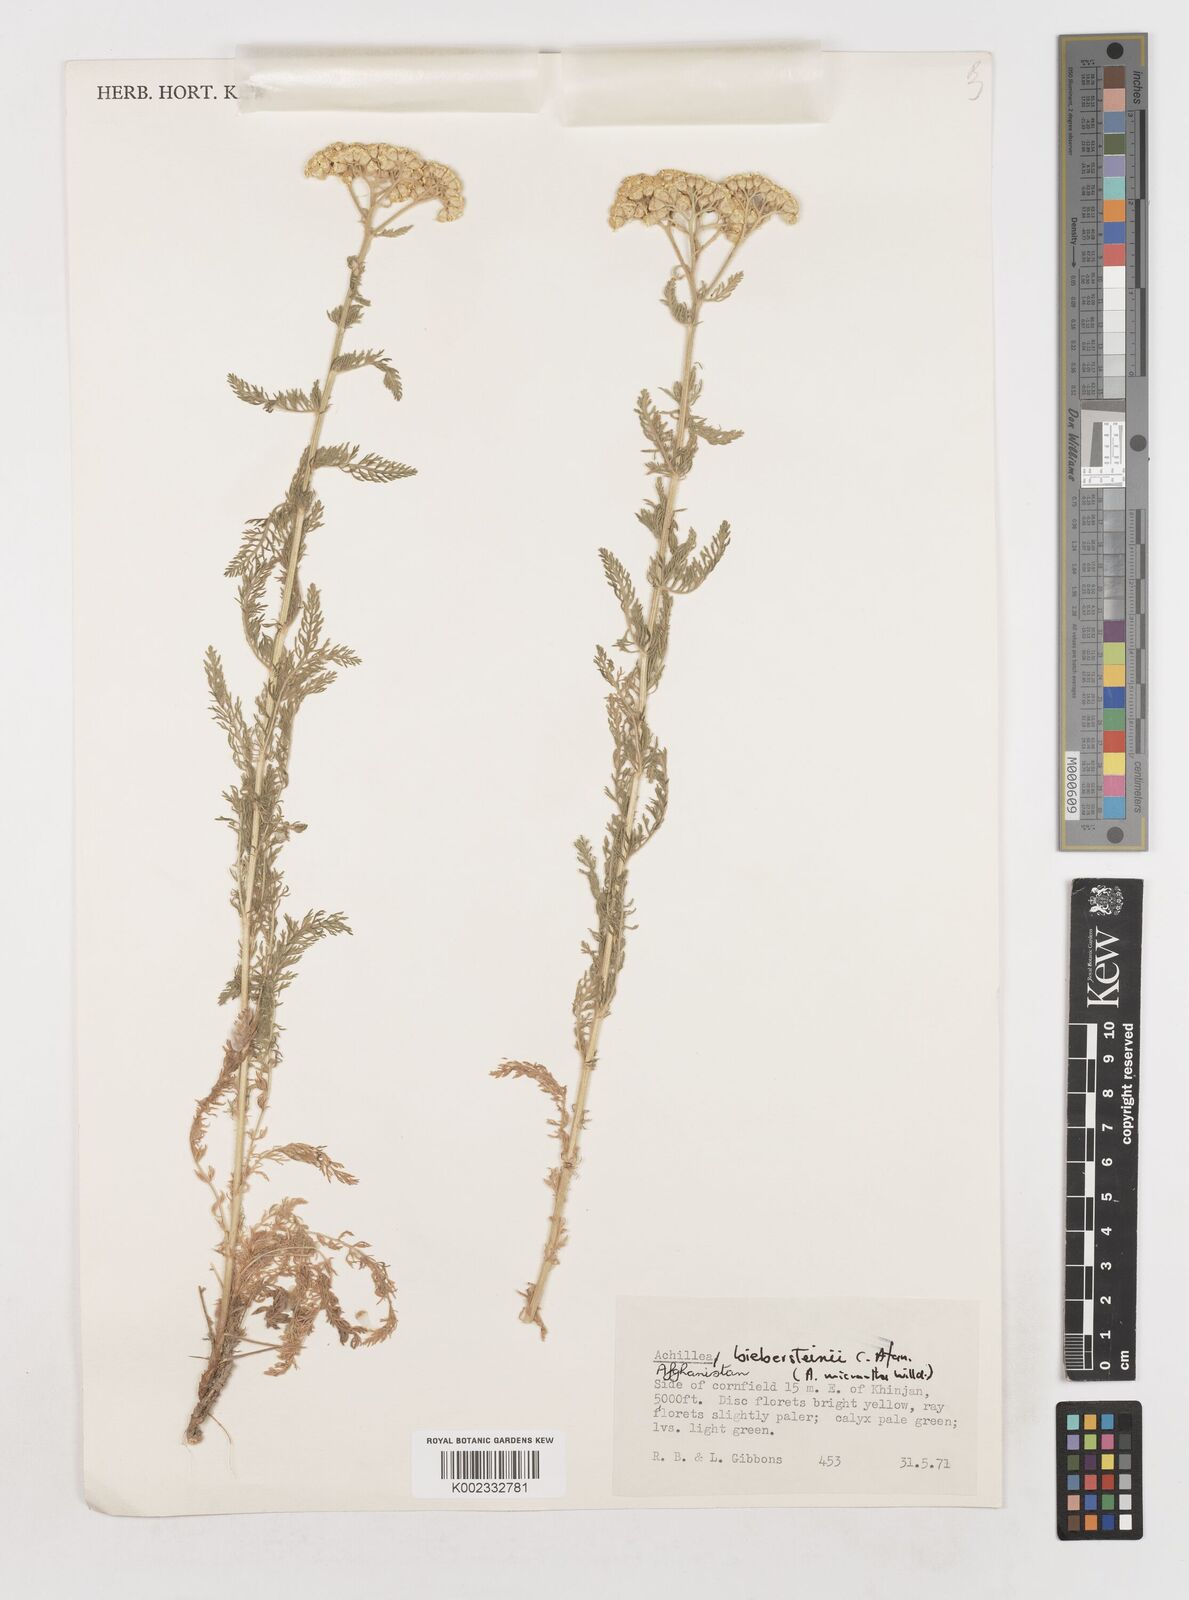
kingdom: Plantae
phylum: Tracheophyta
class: Magnoliopsida
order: Asterales
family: Asteraceae
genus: Achillea
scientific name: Achillea arabica
